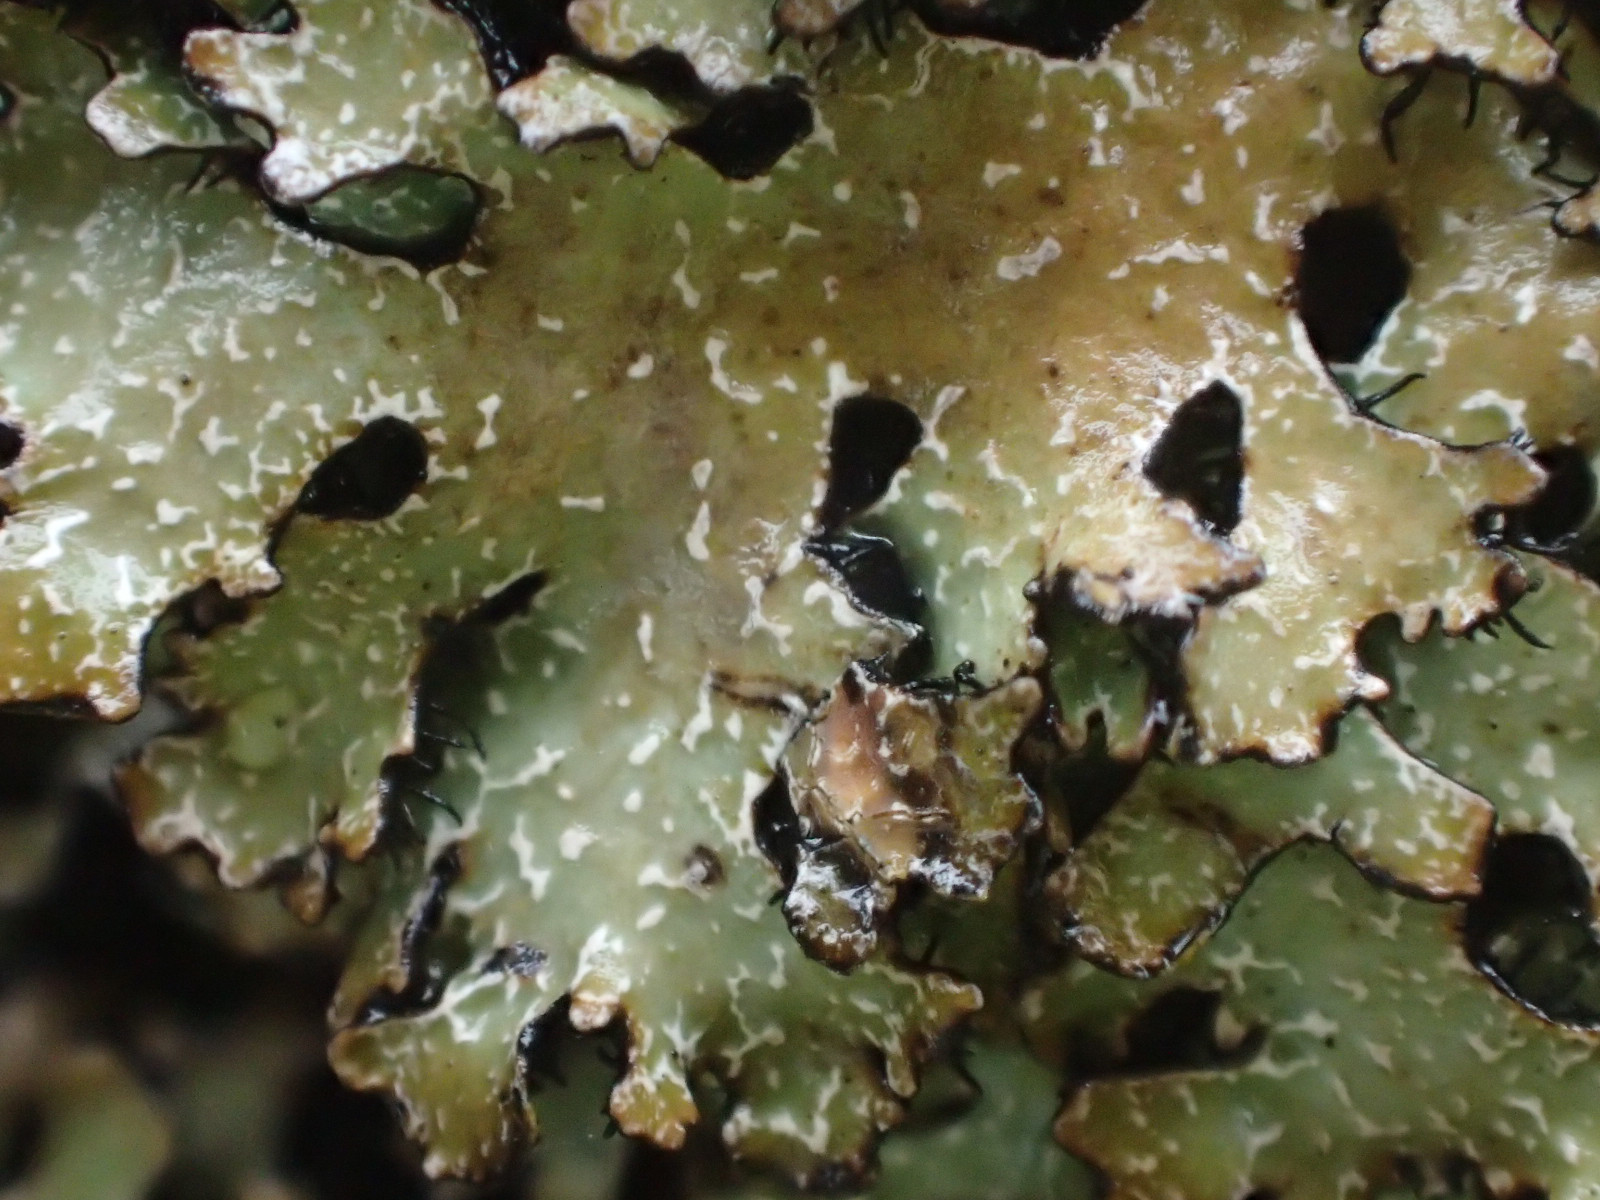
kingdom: Fungi
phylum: Ascomycota
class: Lecanoromycetes
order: Lecanorales
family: Parmeliaceae
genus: Parmelia
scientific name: Parmelia sulcata
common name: rynket skållav
